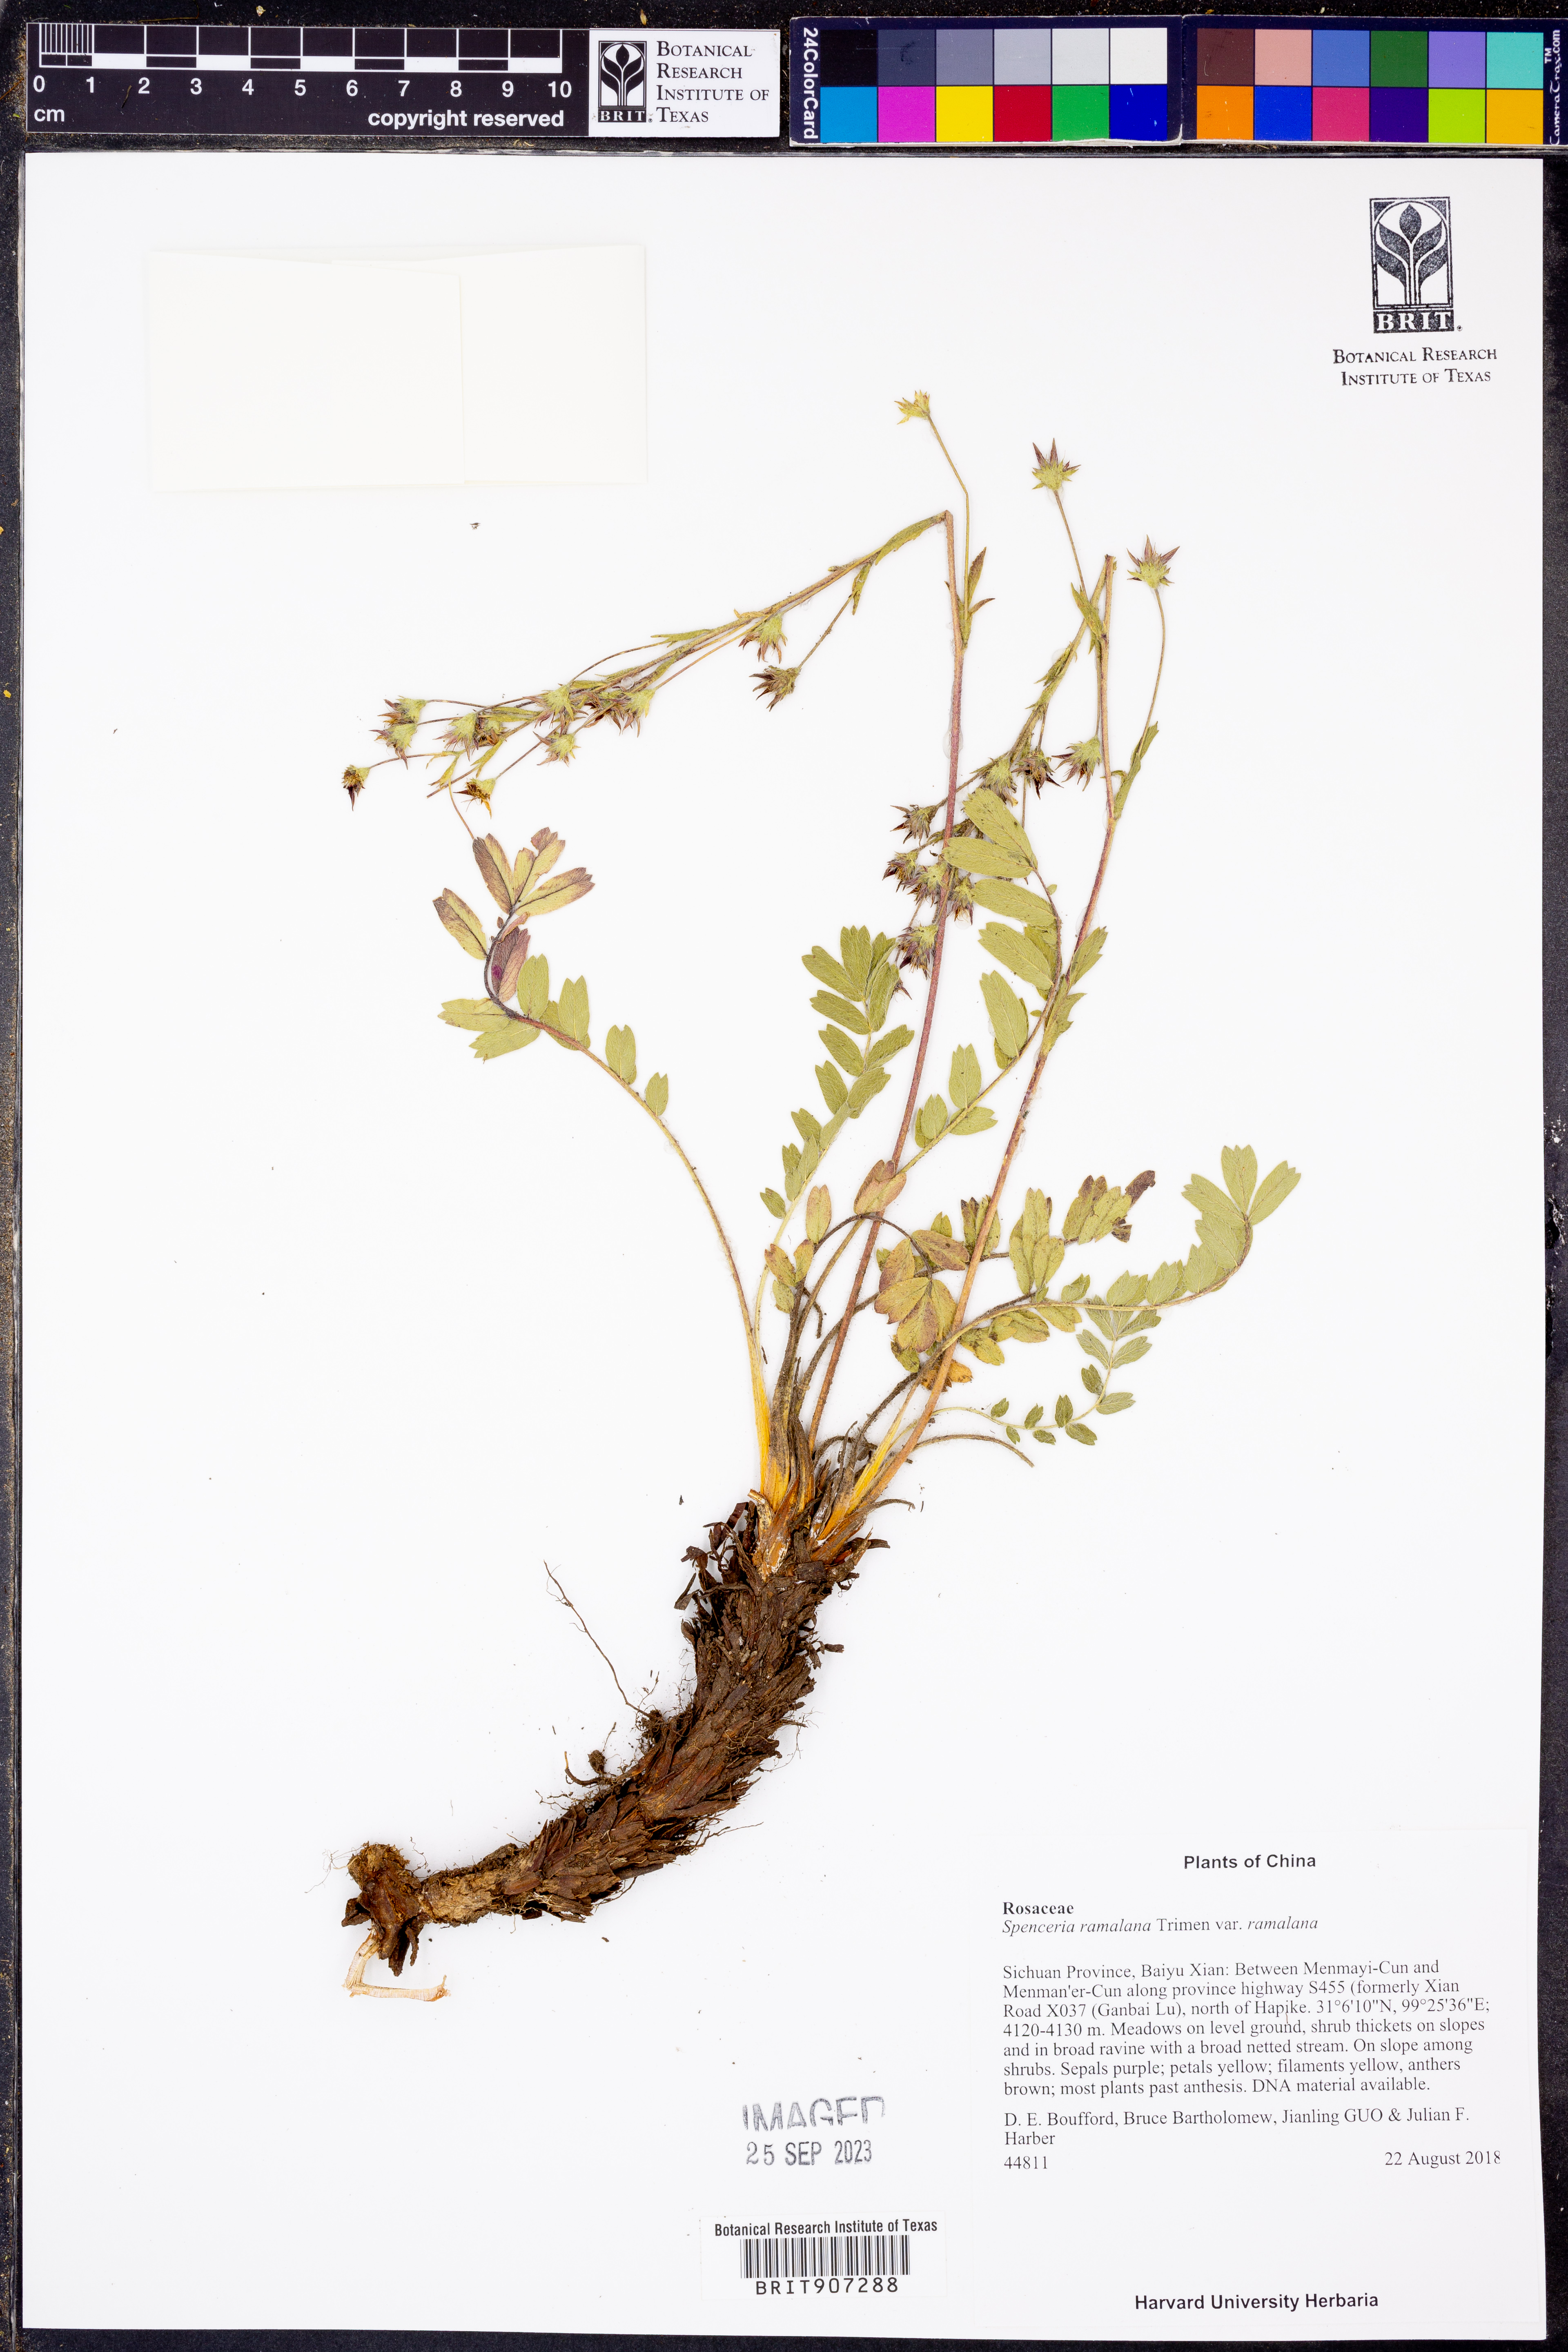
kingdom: Plantae
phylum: Tracheophyta
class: Magnoliopsida
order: Rosales
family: Rosaceae
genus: Spenceria
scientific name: Spenceria ramalana
